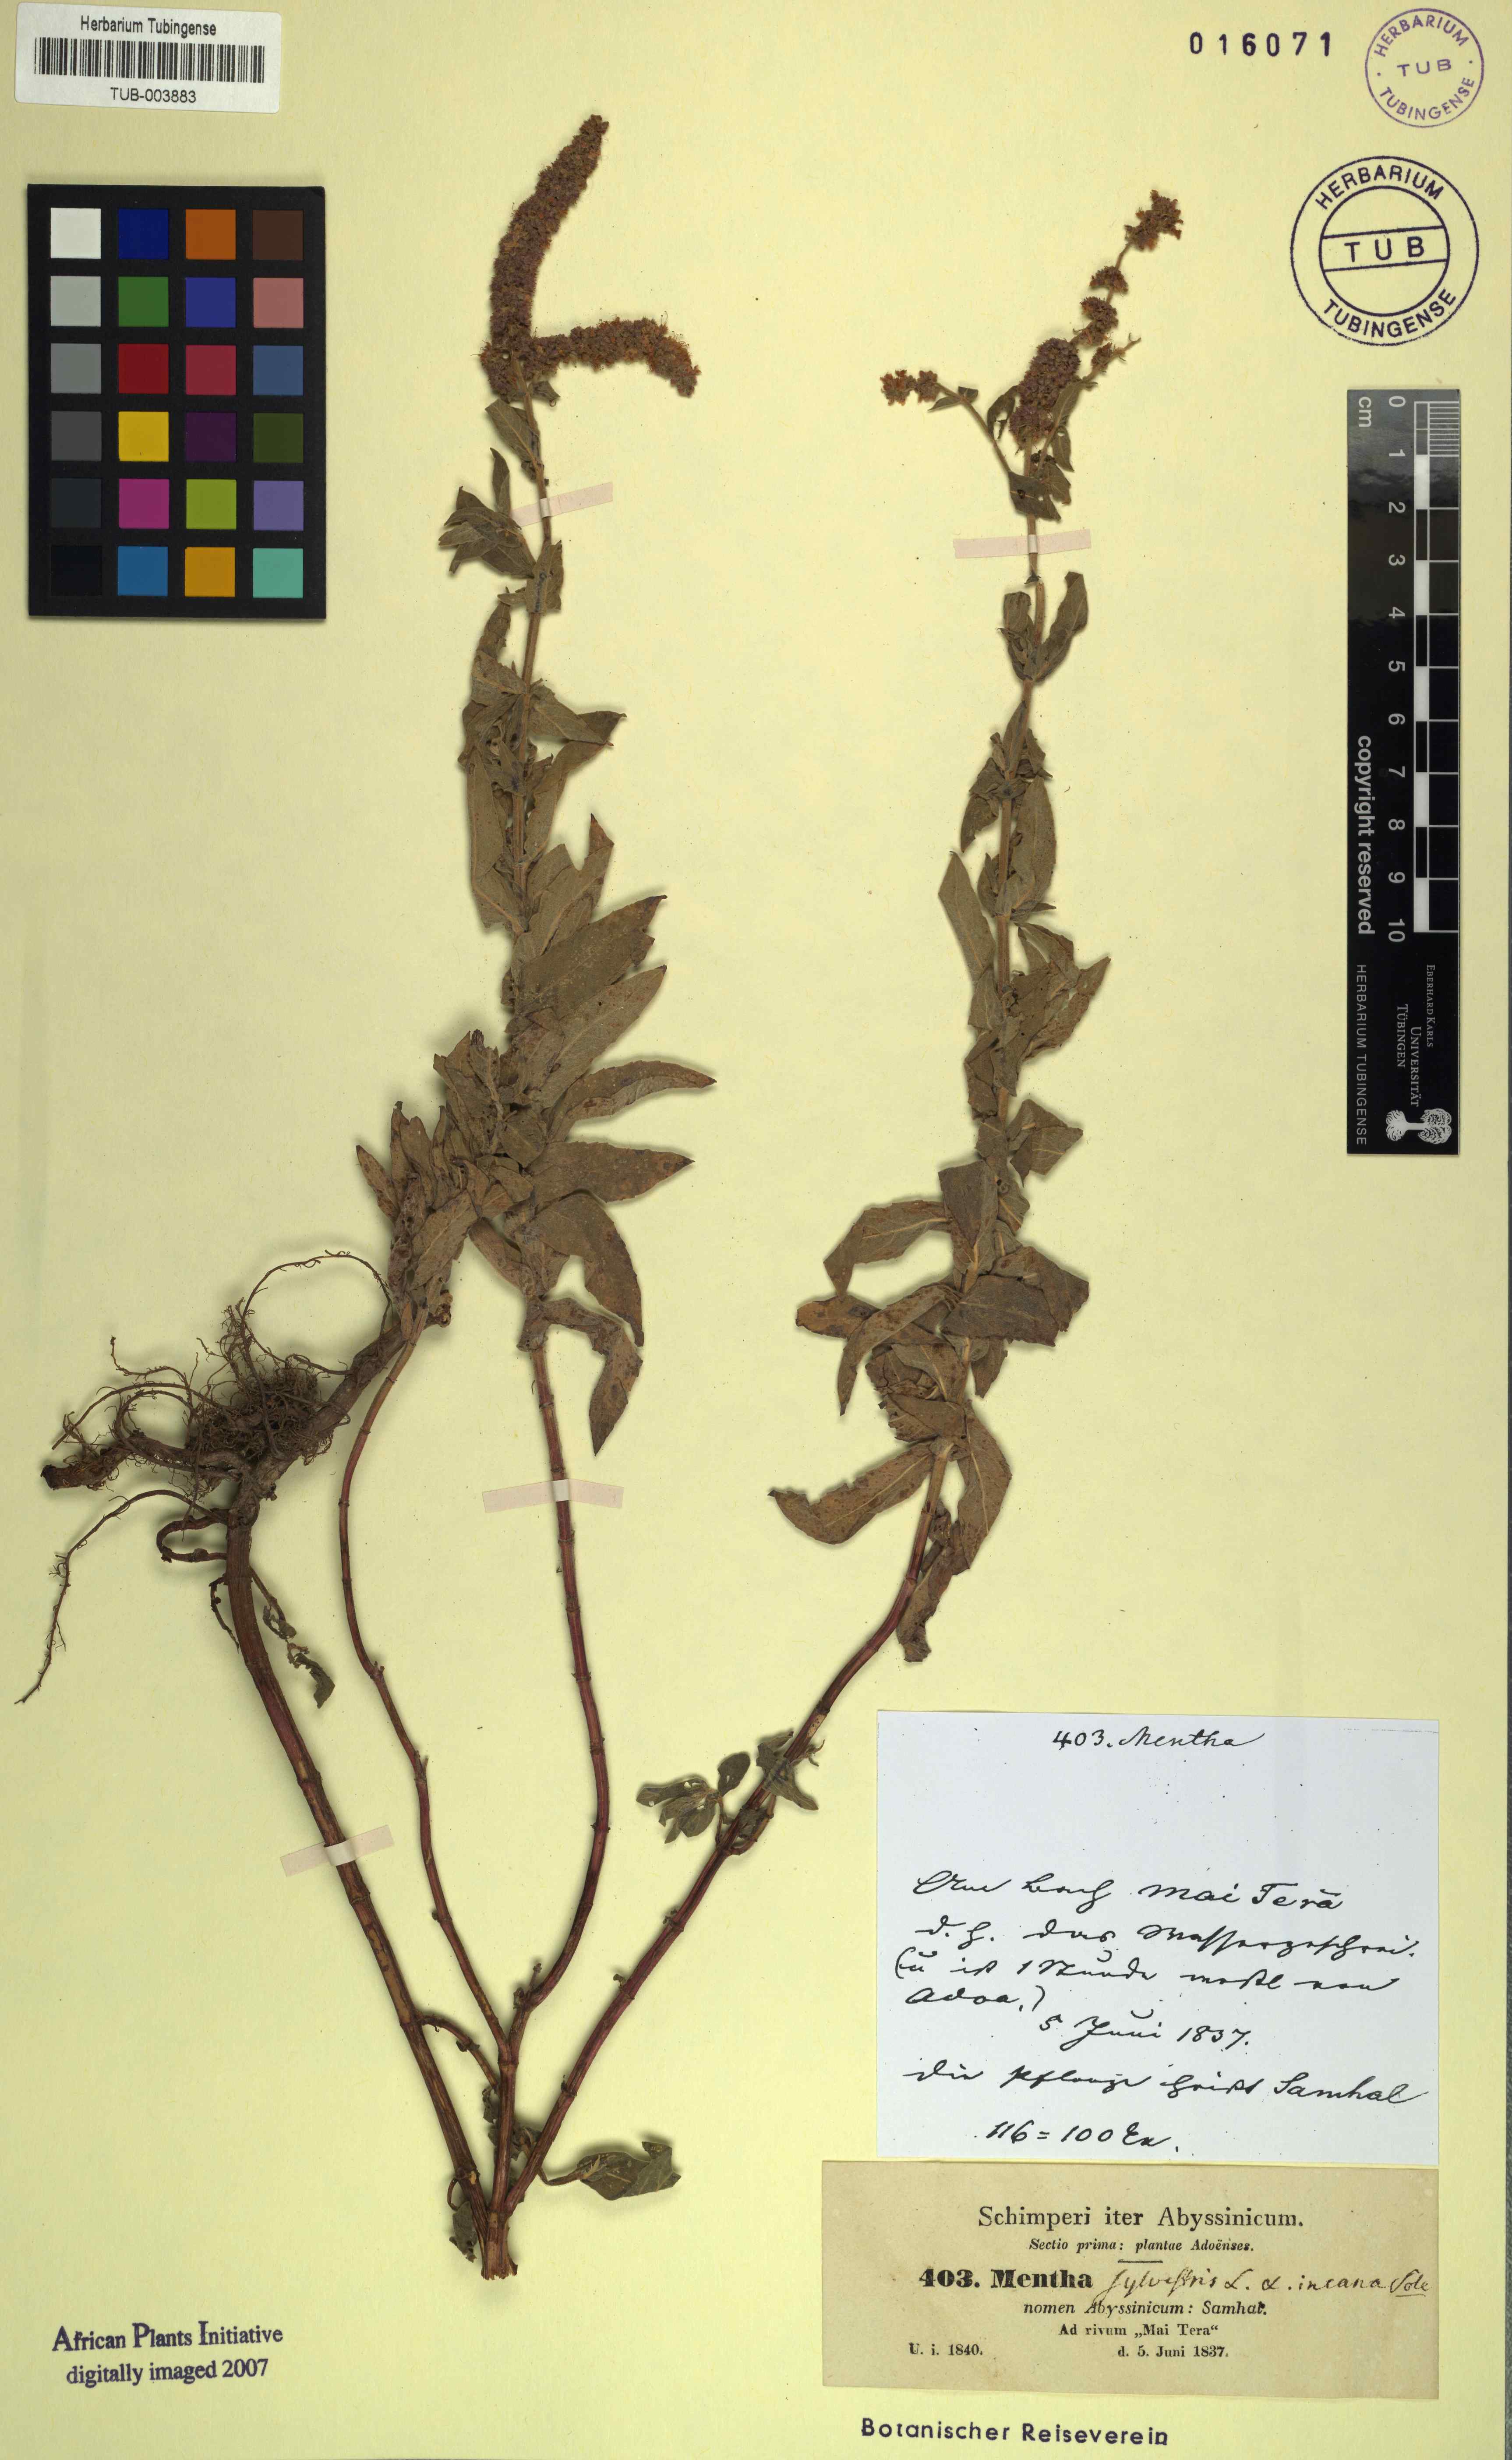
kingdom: Plantae
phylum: Tracheophyta
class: Magnoliopsida
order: Lamiales
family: Lamiaceae
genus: Mentha
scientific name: Mentha longifolia
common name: Horse mint
